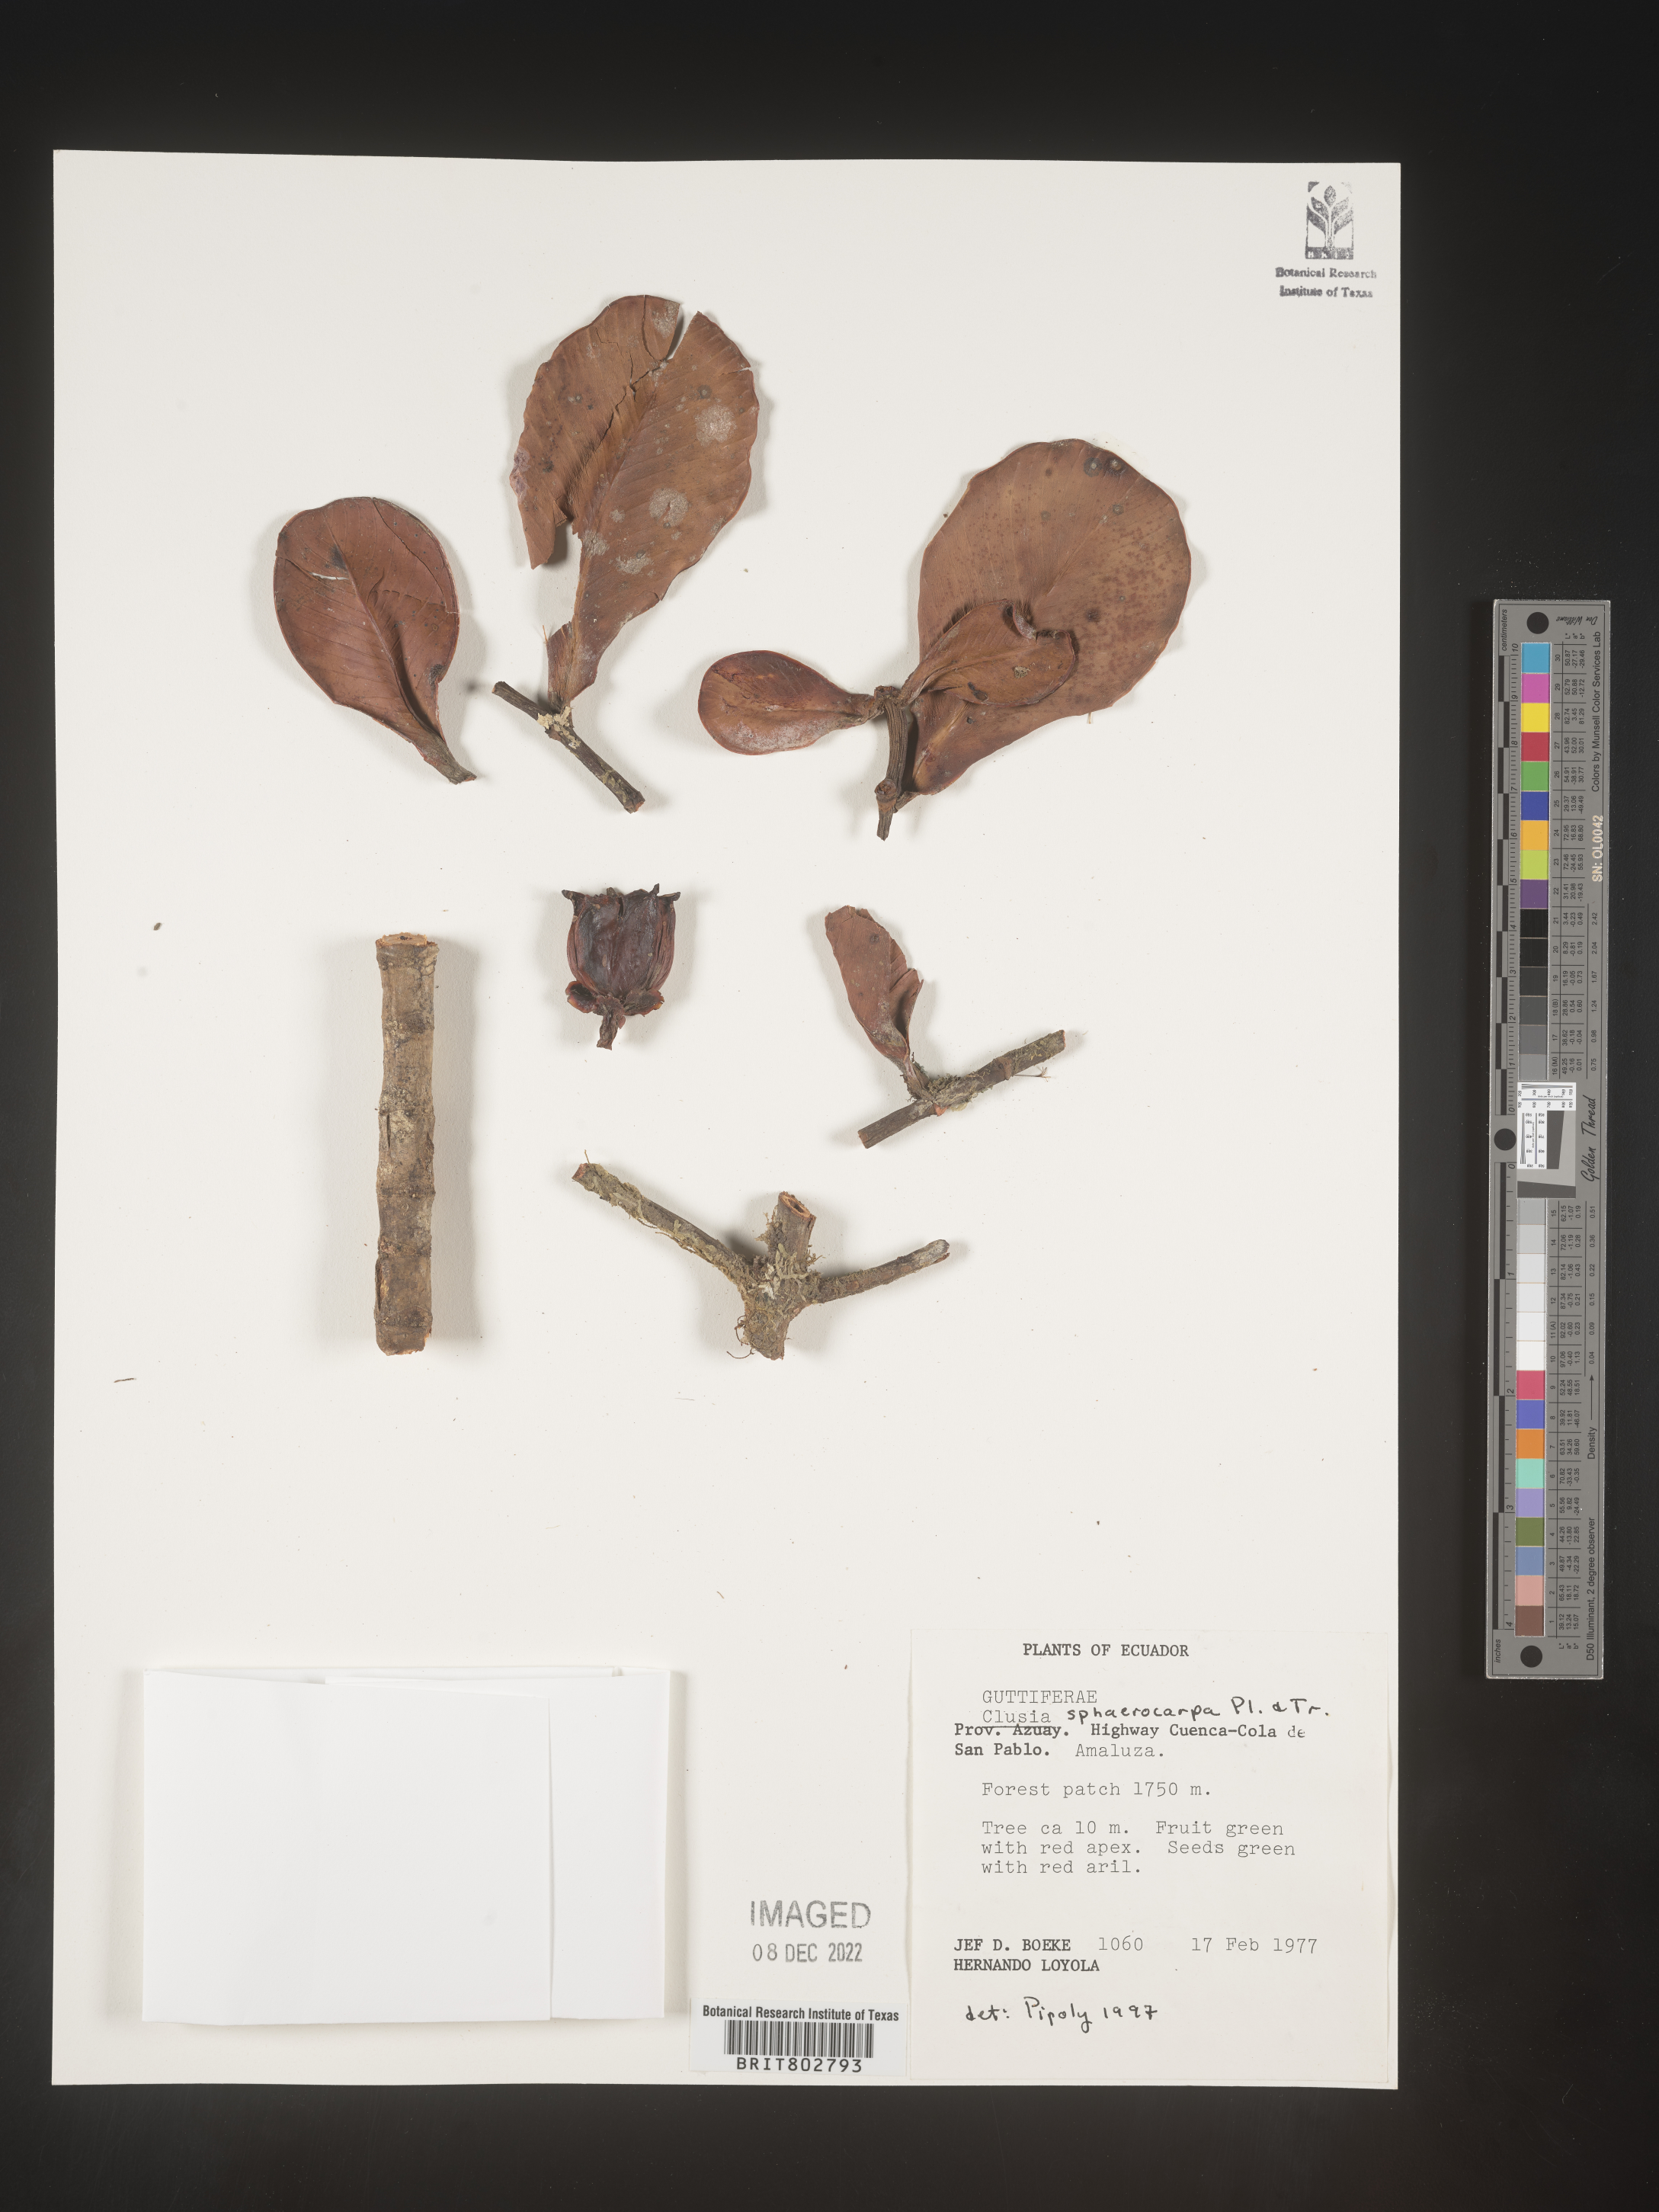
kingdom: Plantae
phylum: Tracheophyta
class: Magnoliopsida
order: Malpighiales
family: Clusiaceae
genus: Clusia
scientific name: Clusia sphaerocarpa
